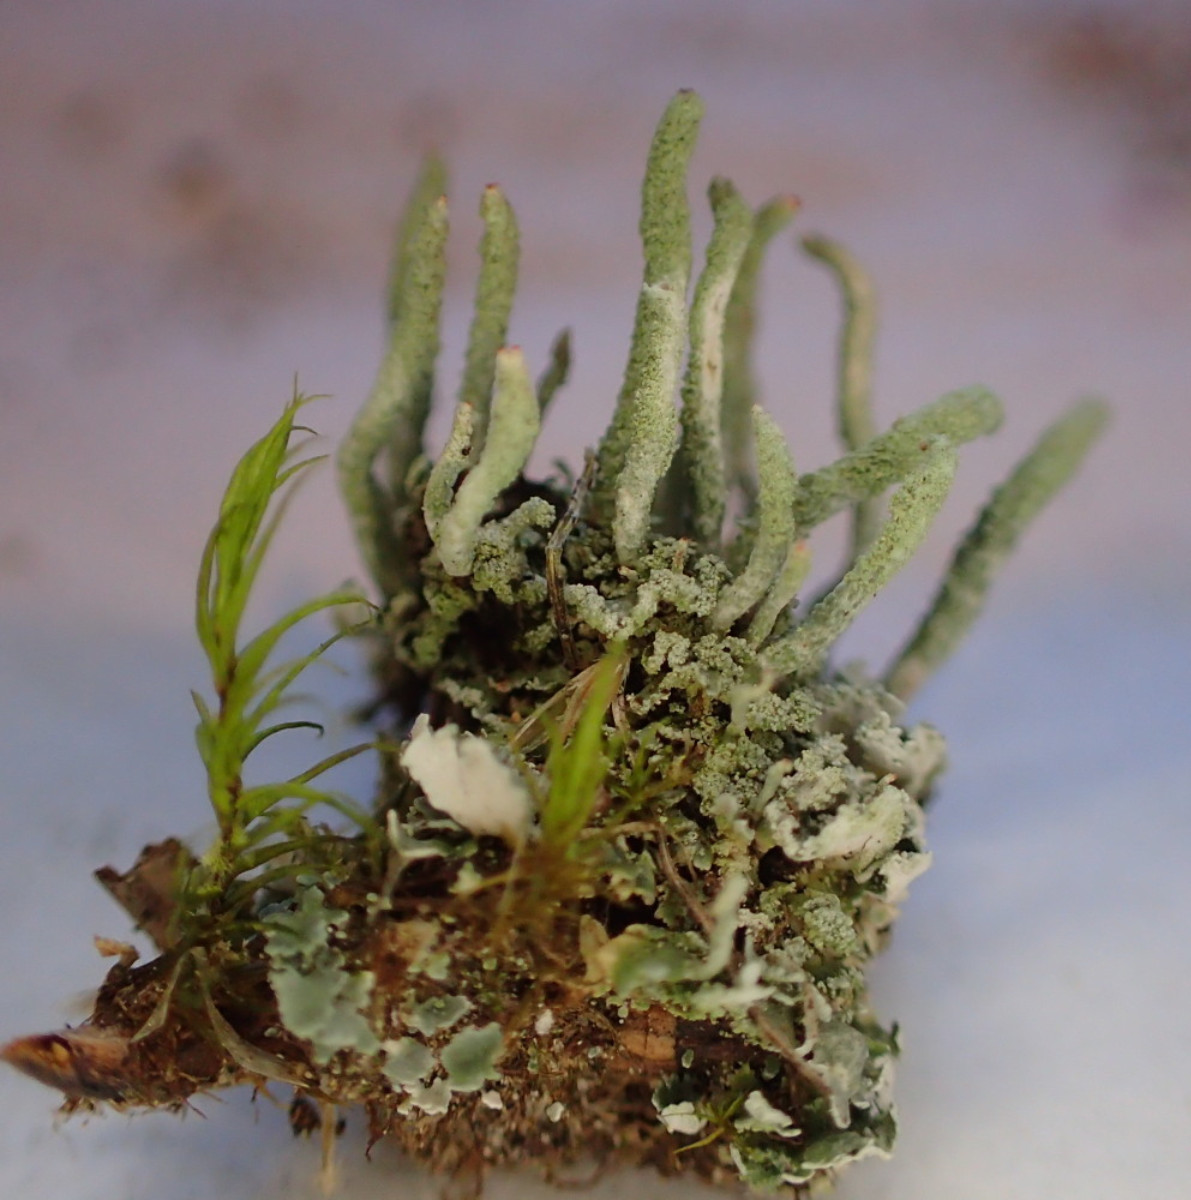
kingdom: Fungi
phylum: Ascomycota
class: Lecanoromycetes
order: Lecanorales
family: Cladoniaceae
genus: Cladonia
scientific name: Cladonia macilenta
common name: indsvunden bægerlav
